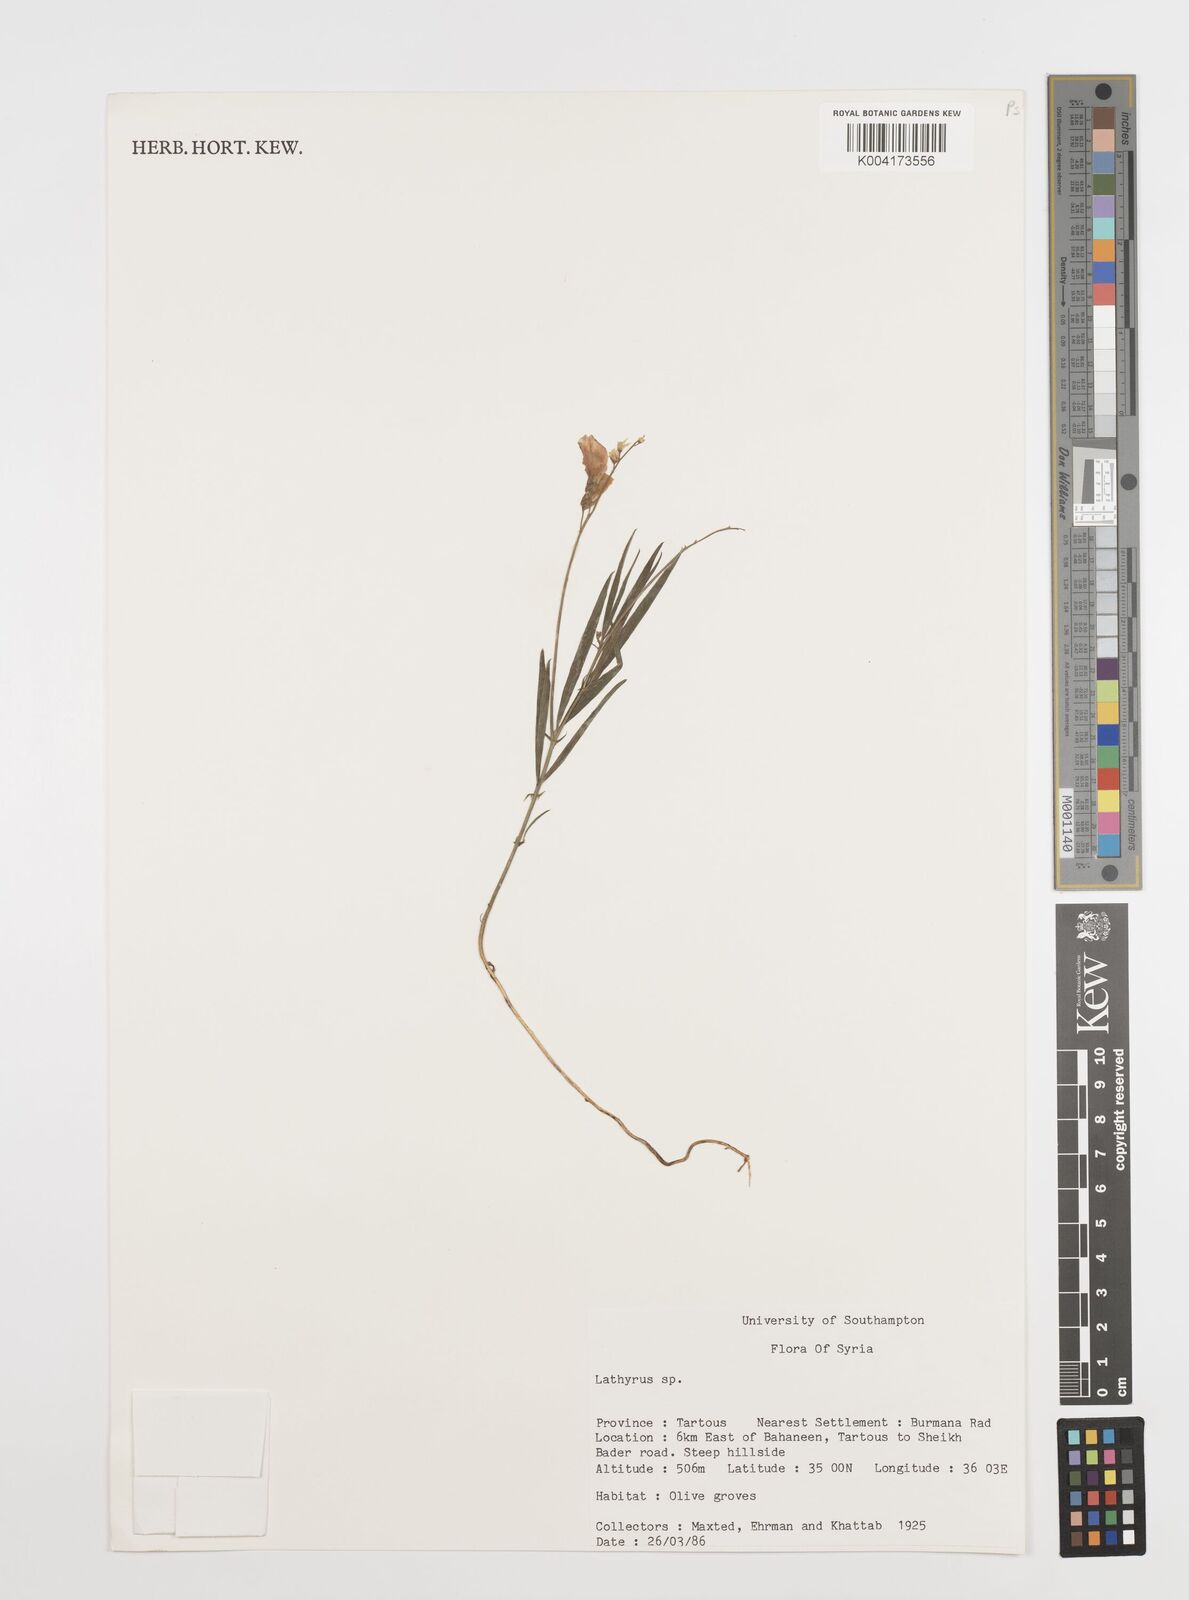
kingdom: Plantae
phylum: Tracheophyta
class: Magnoliopsida
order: Fabales
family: Fabaceae
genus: Lathyrus
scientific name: Lathyrus
